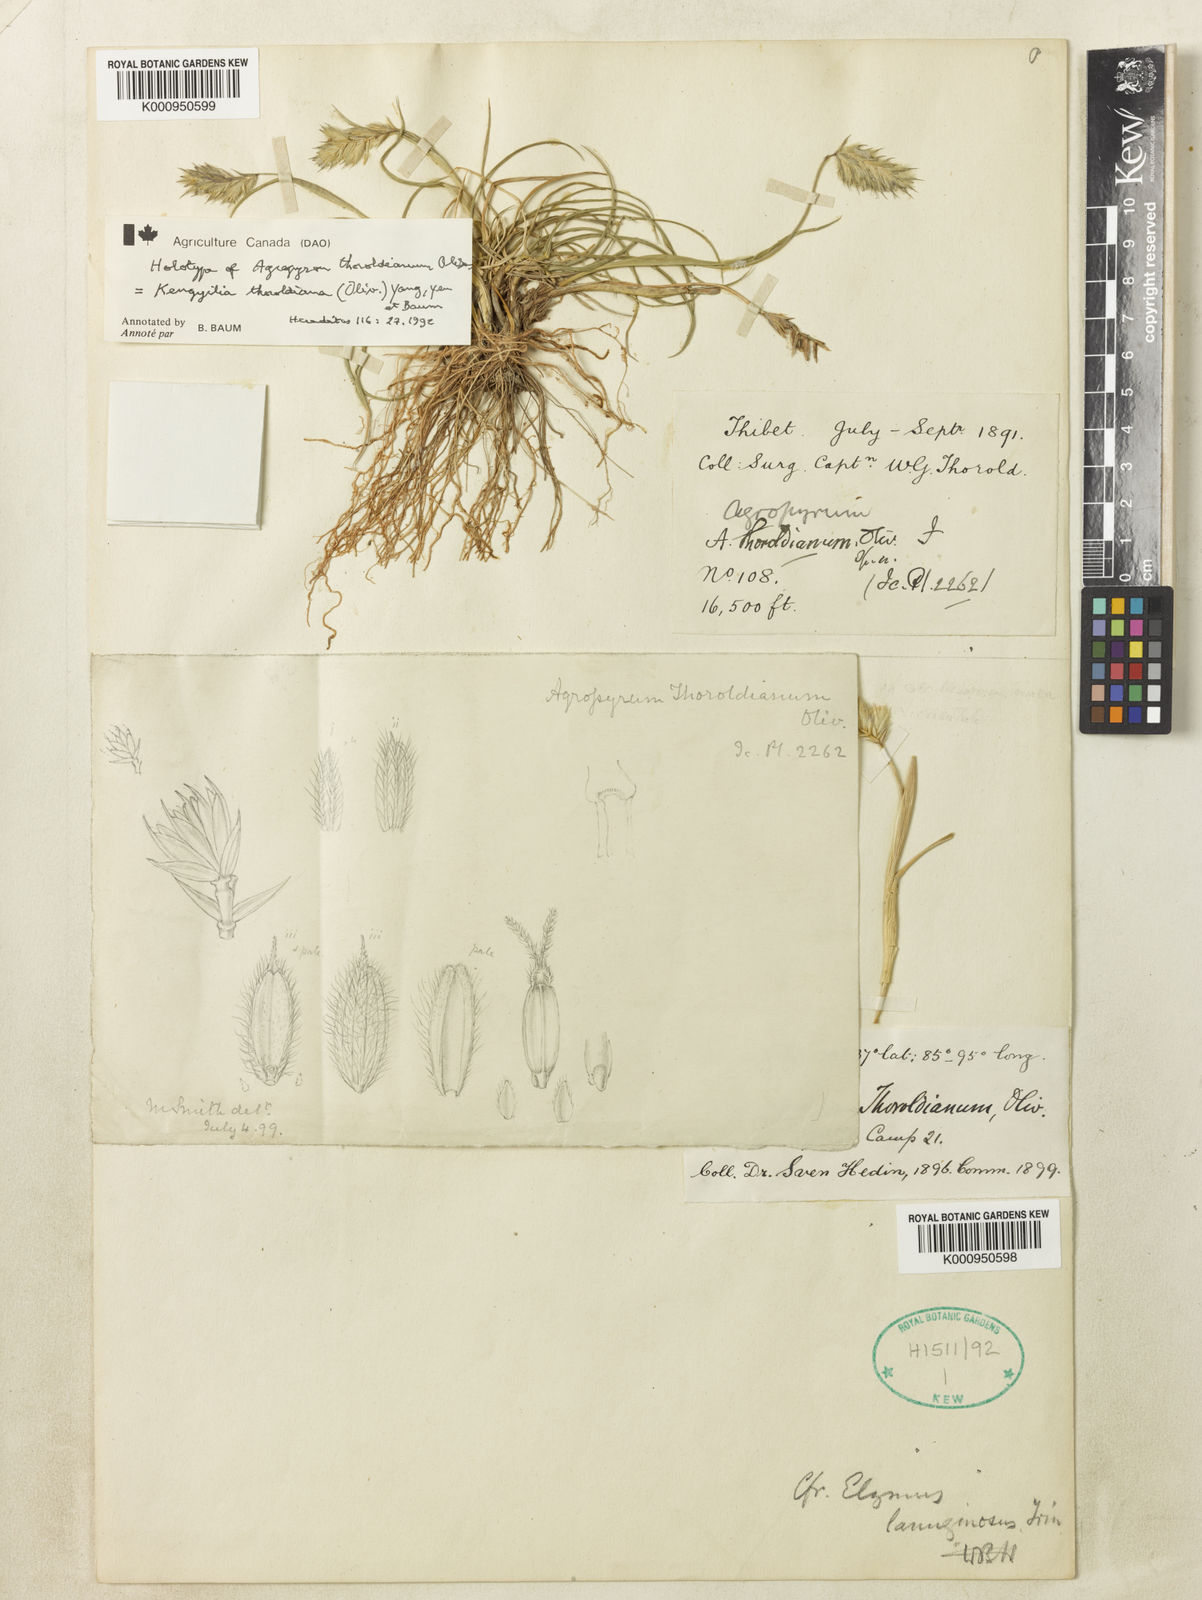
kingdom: Plantae
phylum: Tracheophyta
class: Liliopsida
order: Poales
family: Poaceae
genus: Agropyron
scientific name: Agropyron
